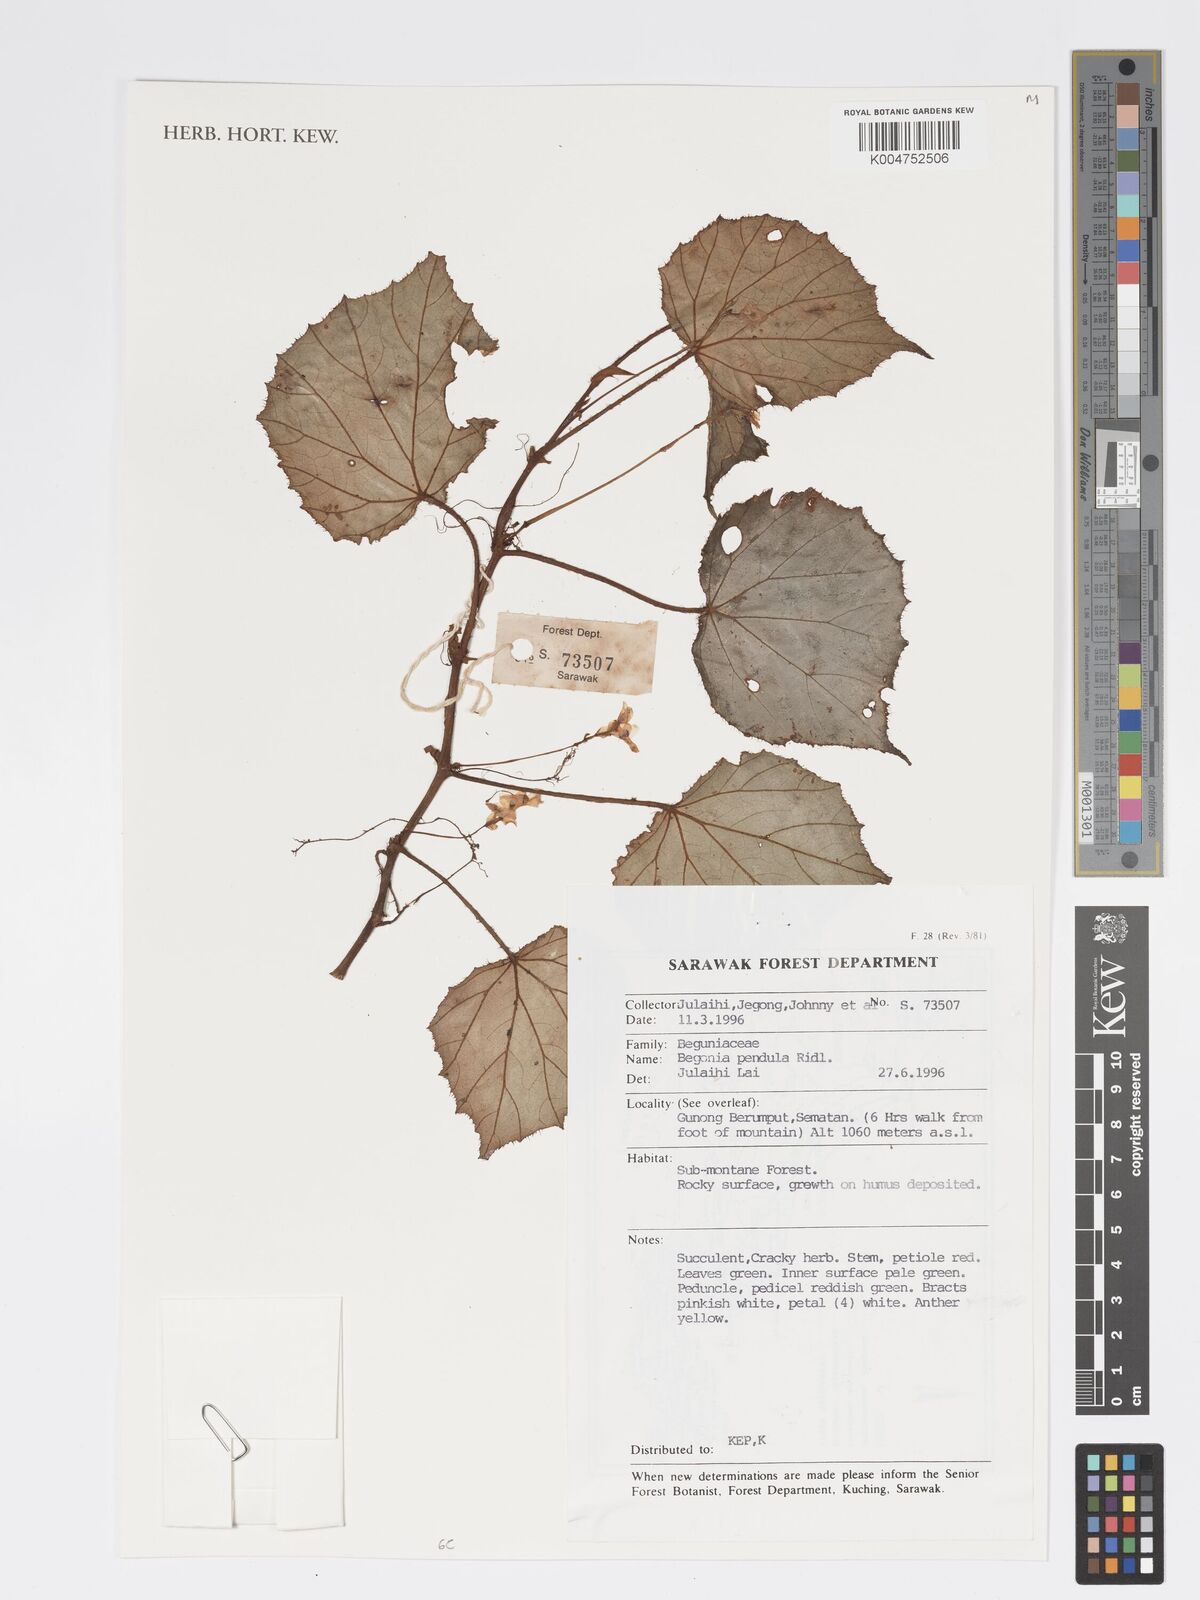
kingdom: Plantae
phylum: Tracheophyta
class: Magnoliopsida
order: Cucurbitales
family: Begoniaceae
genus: Begonia
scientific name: Begonia
